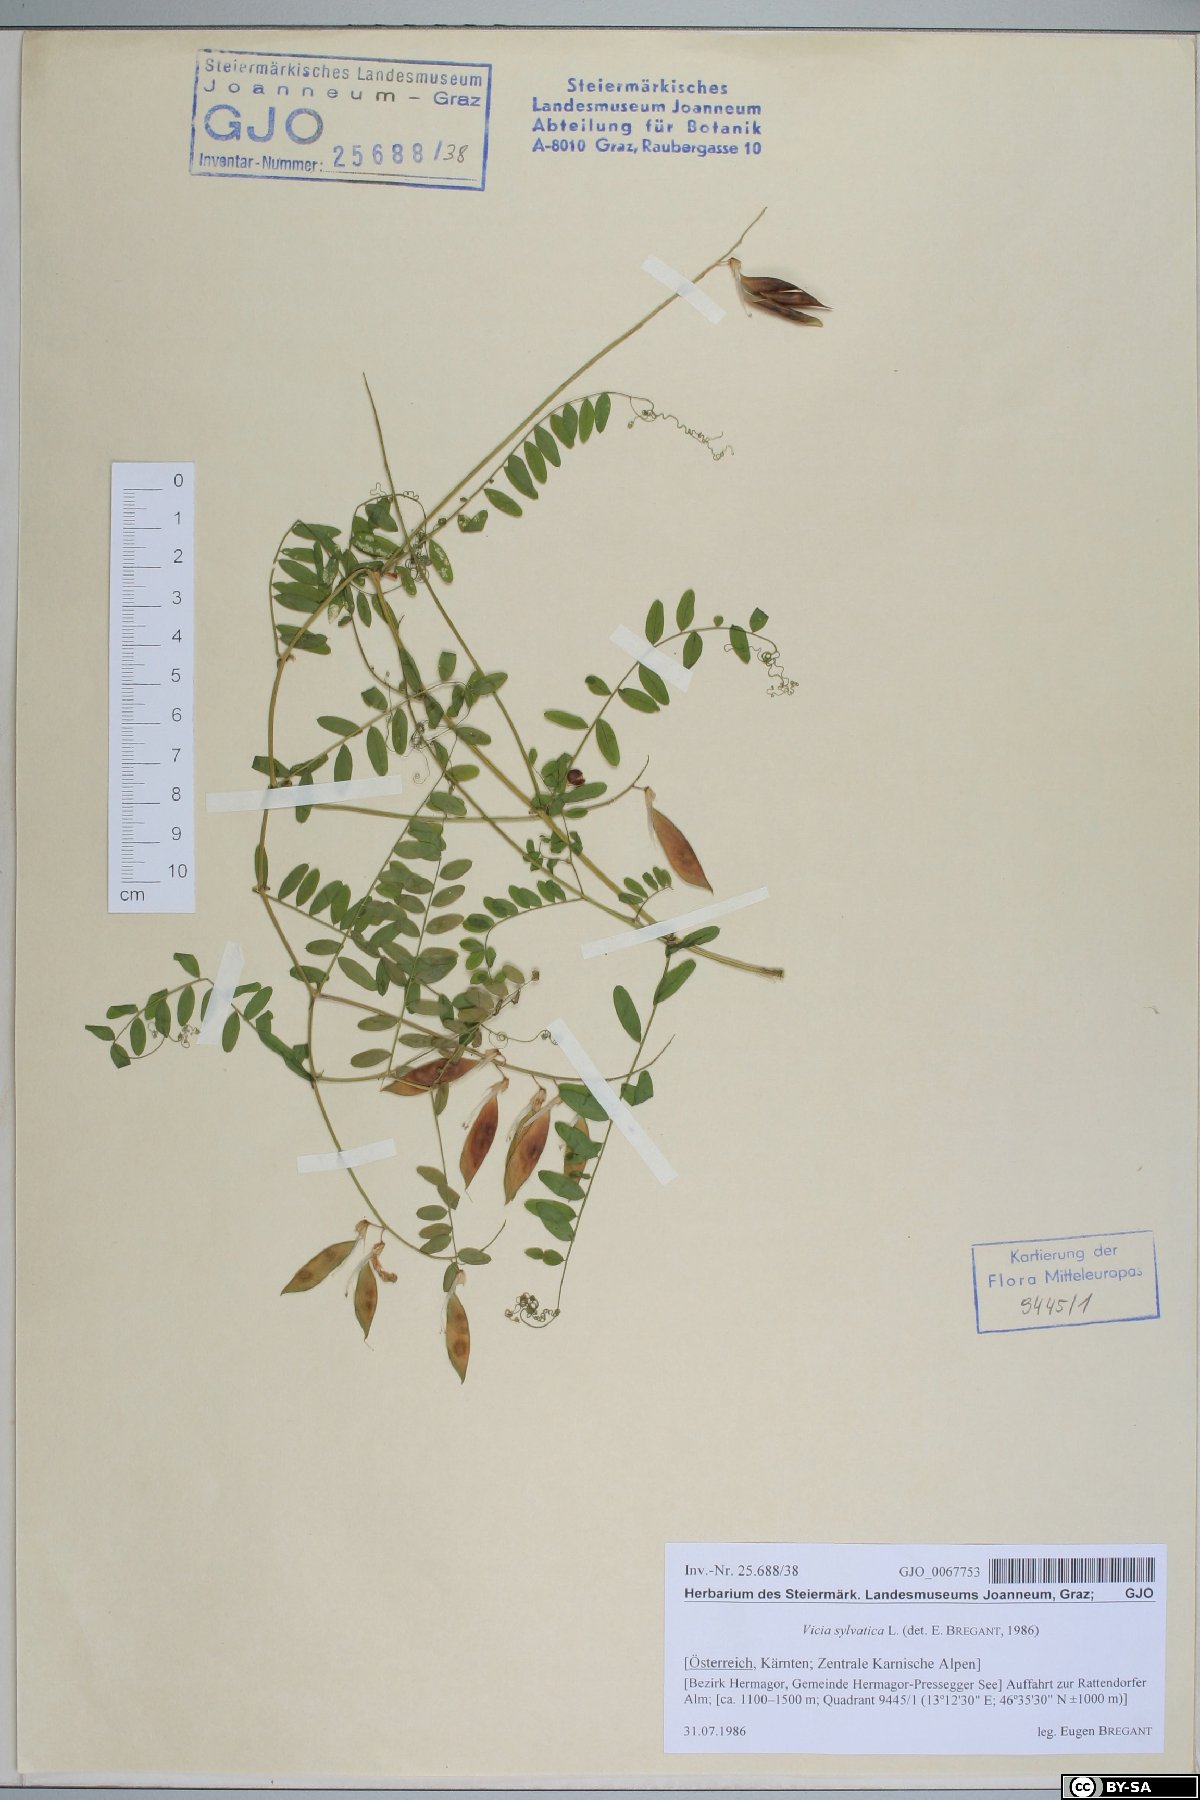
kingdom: Plantae
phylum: Tracheophyta
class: Magnoliopsida
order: Fabales
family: Fabaceae
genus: Vicia
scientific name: Vicia sylvatica
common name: Wood vetch
